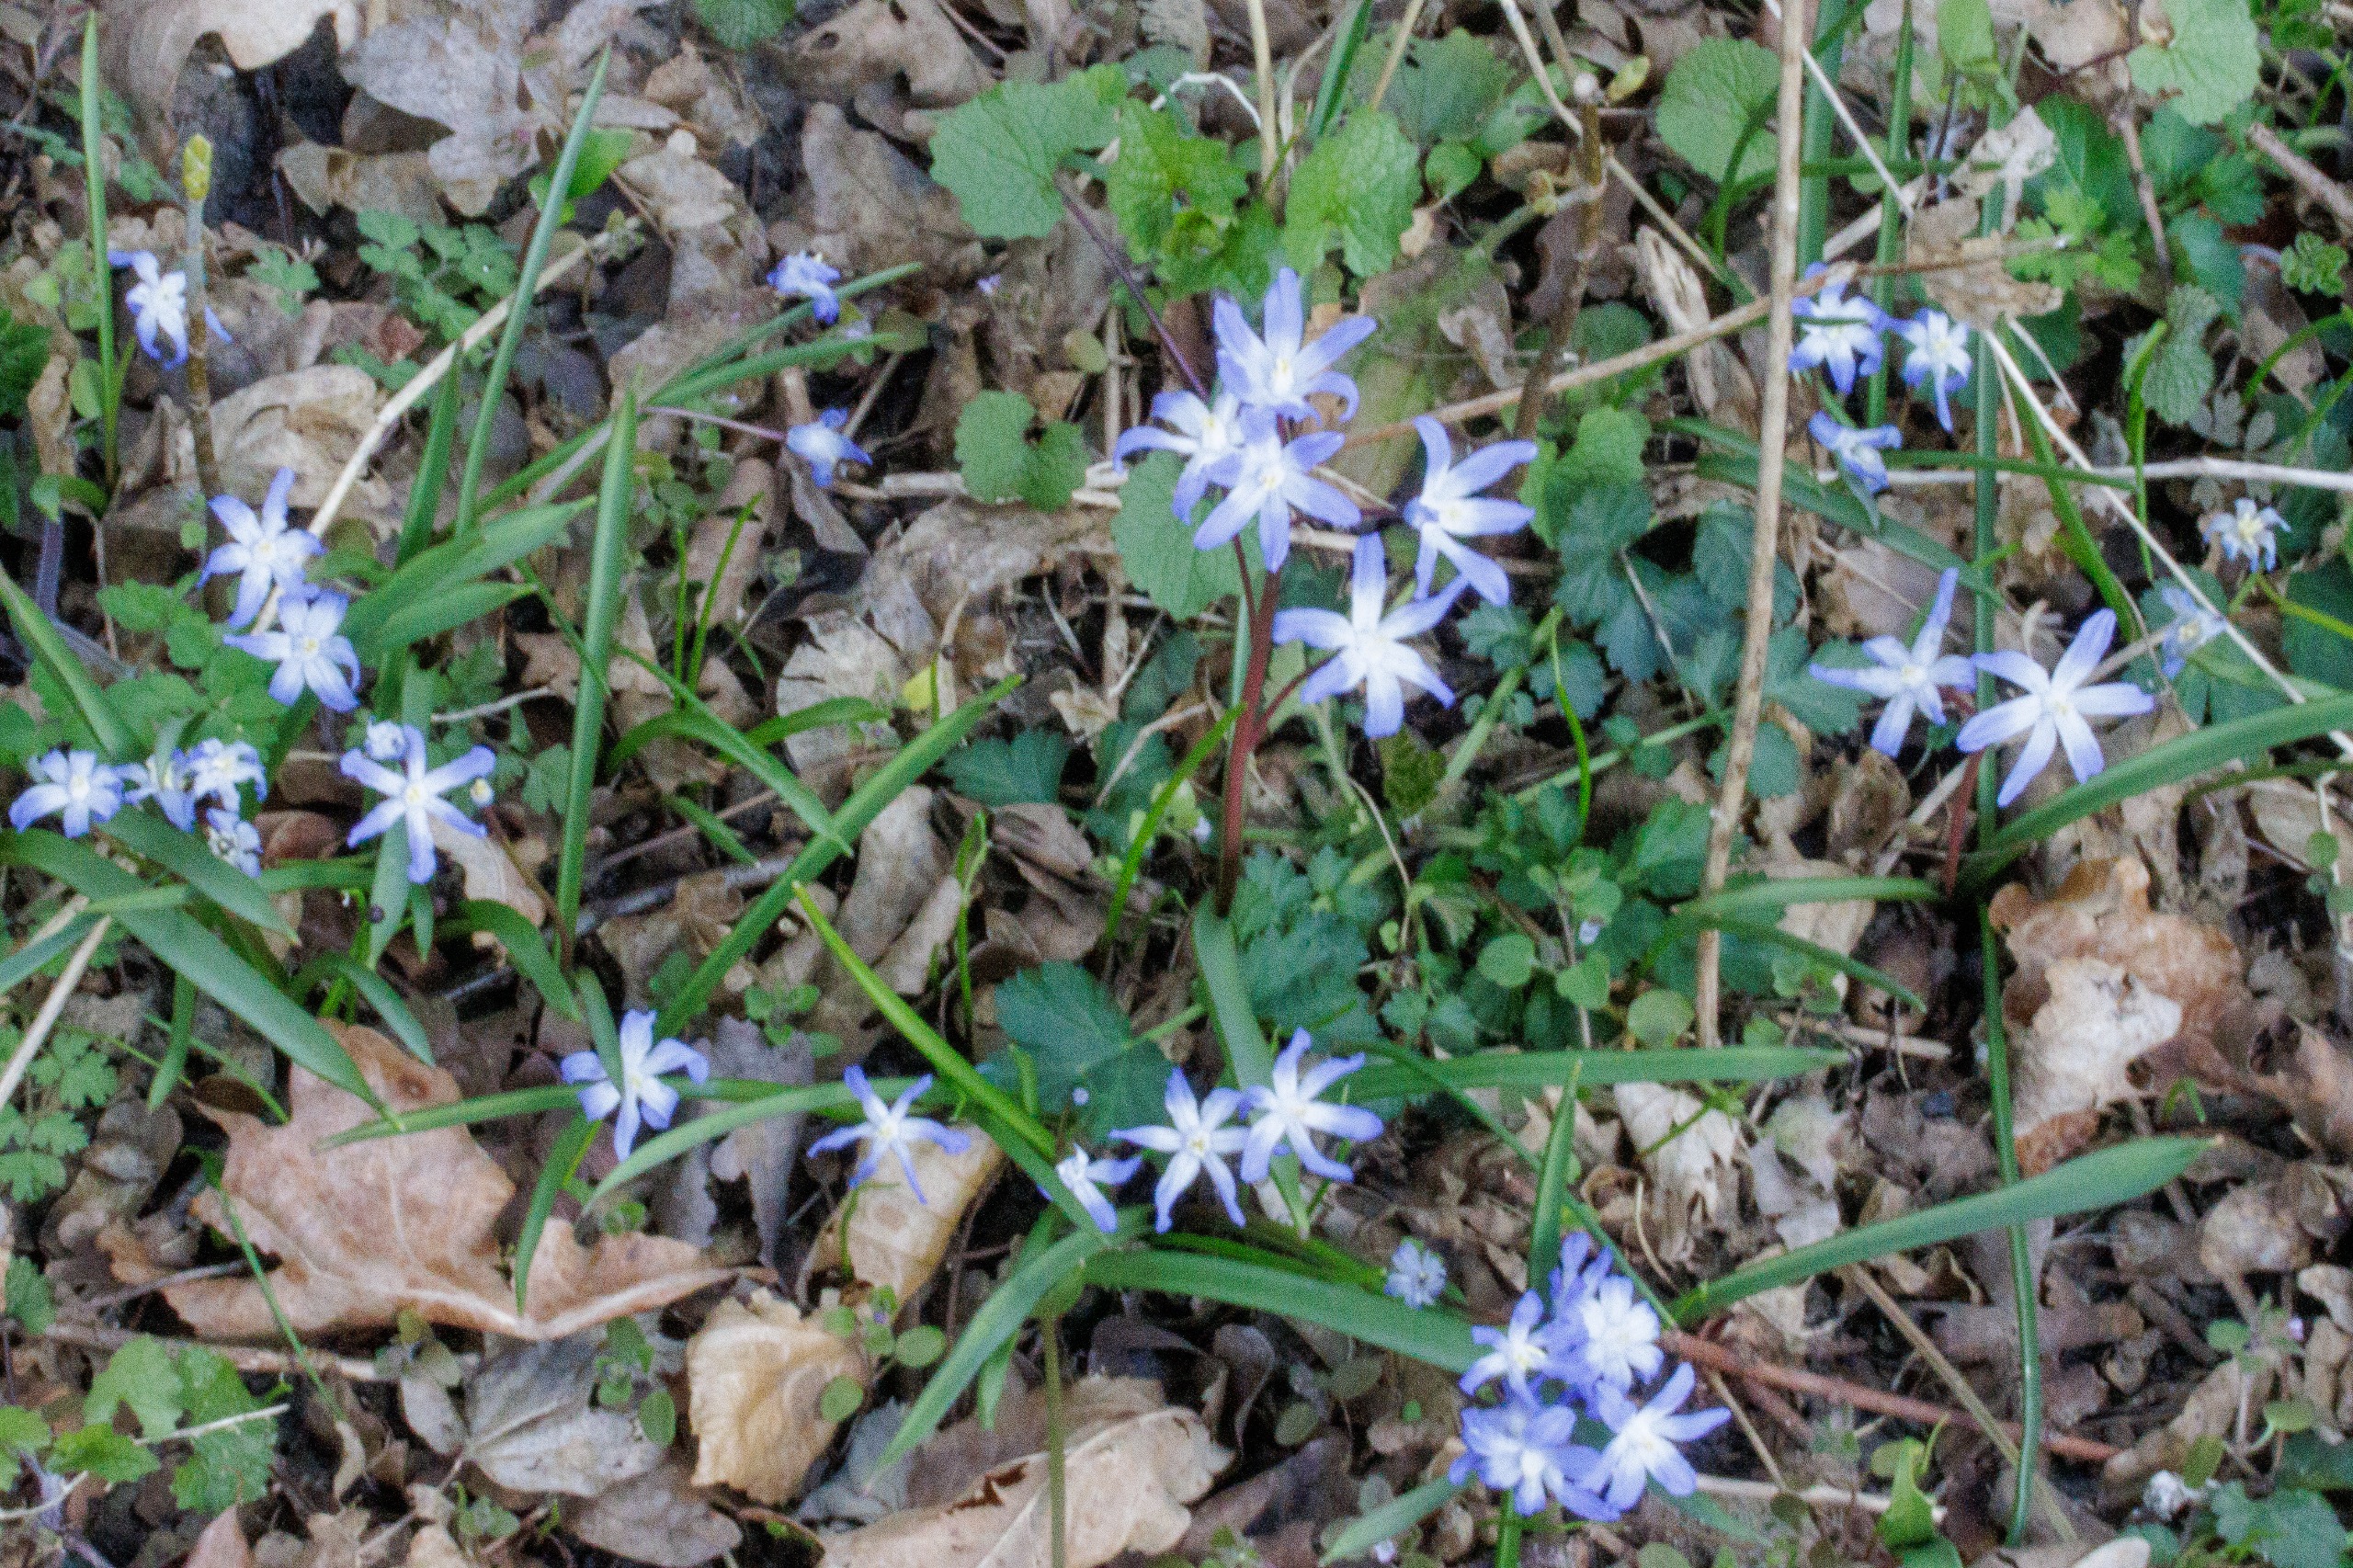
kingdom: Plantae
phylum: Tracheophyta
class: Liliopsida
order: Asparagales
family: Asparagaceae
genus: Scilla
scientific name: Scilla forbesii
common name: Almindelig snepryd
